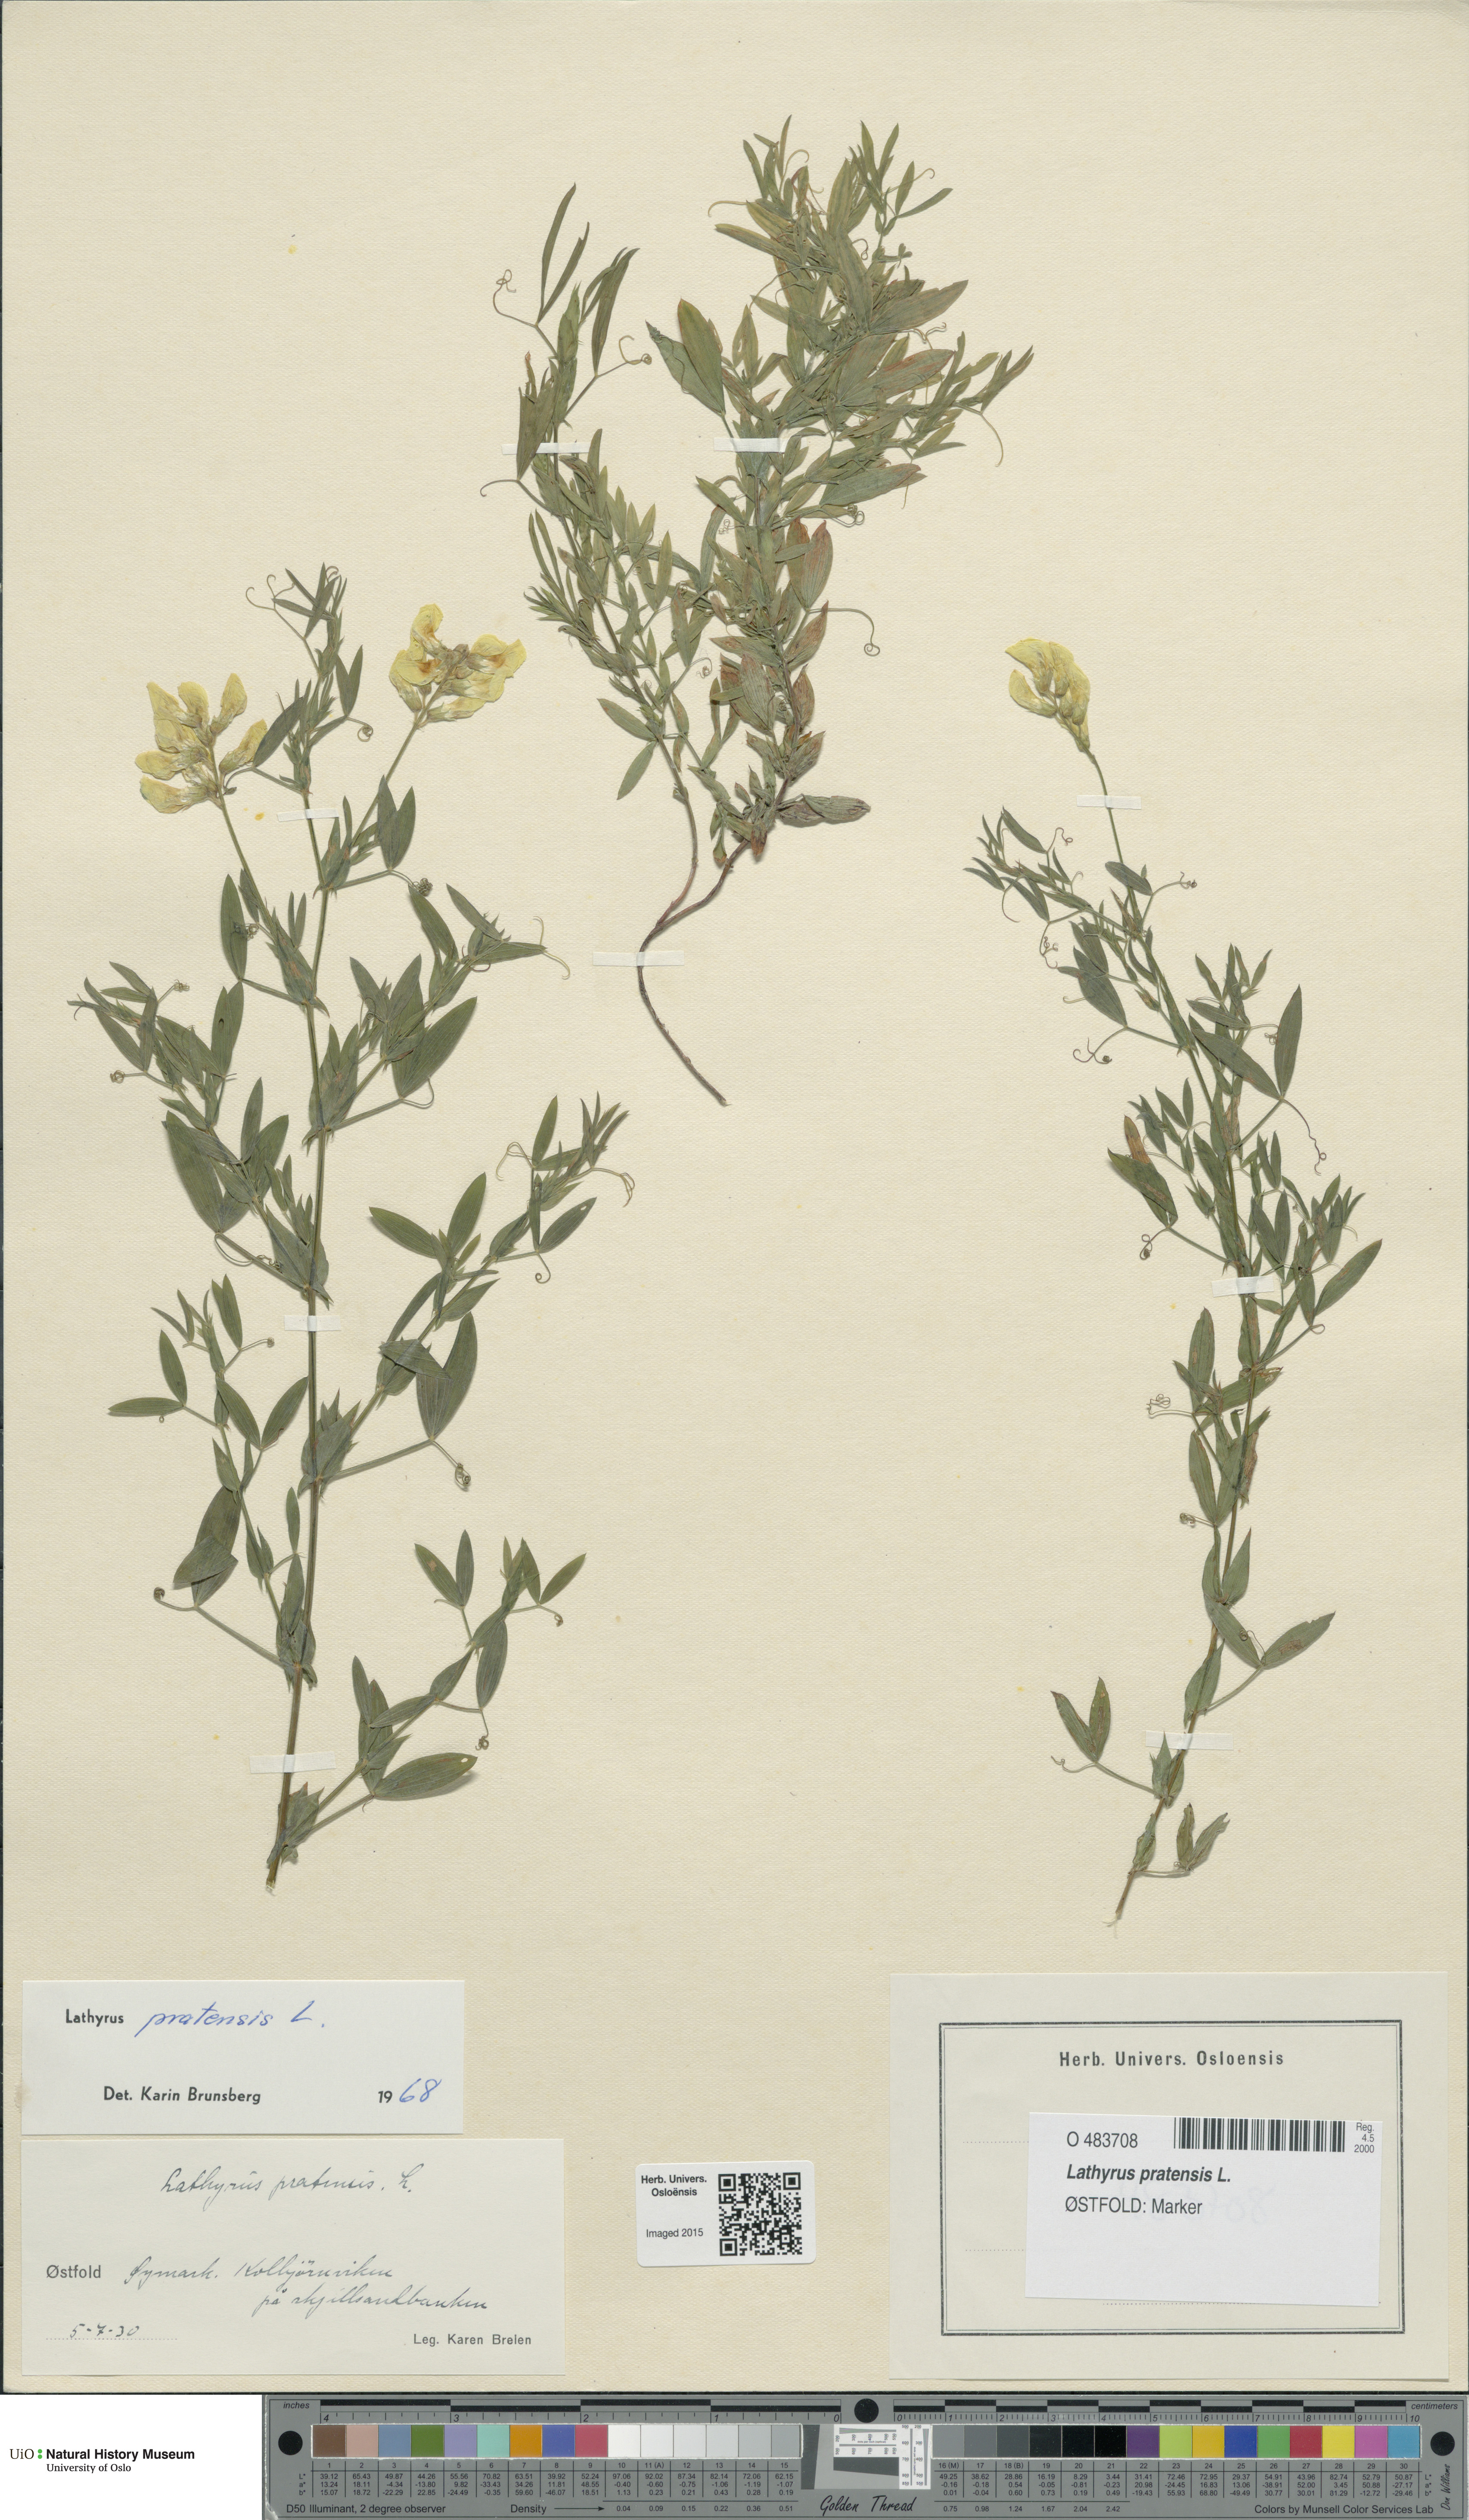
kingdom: Plantae
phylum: Tracheophyta
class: Magnoliopsida
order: Fabales
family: Fabaceae
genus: Lathyrus
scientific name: Lathyrus pratensis
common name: Meadow vetchling
